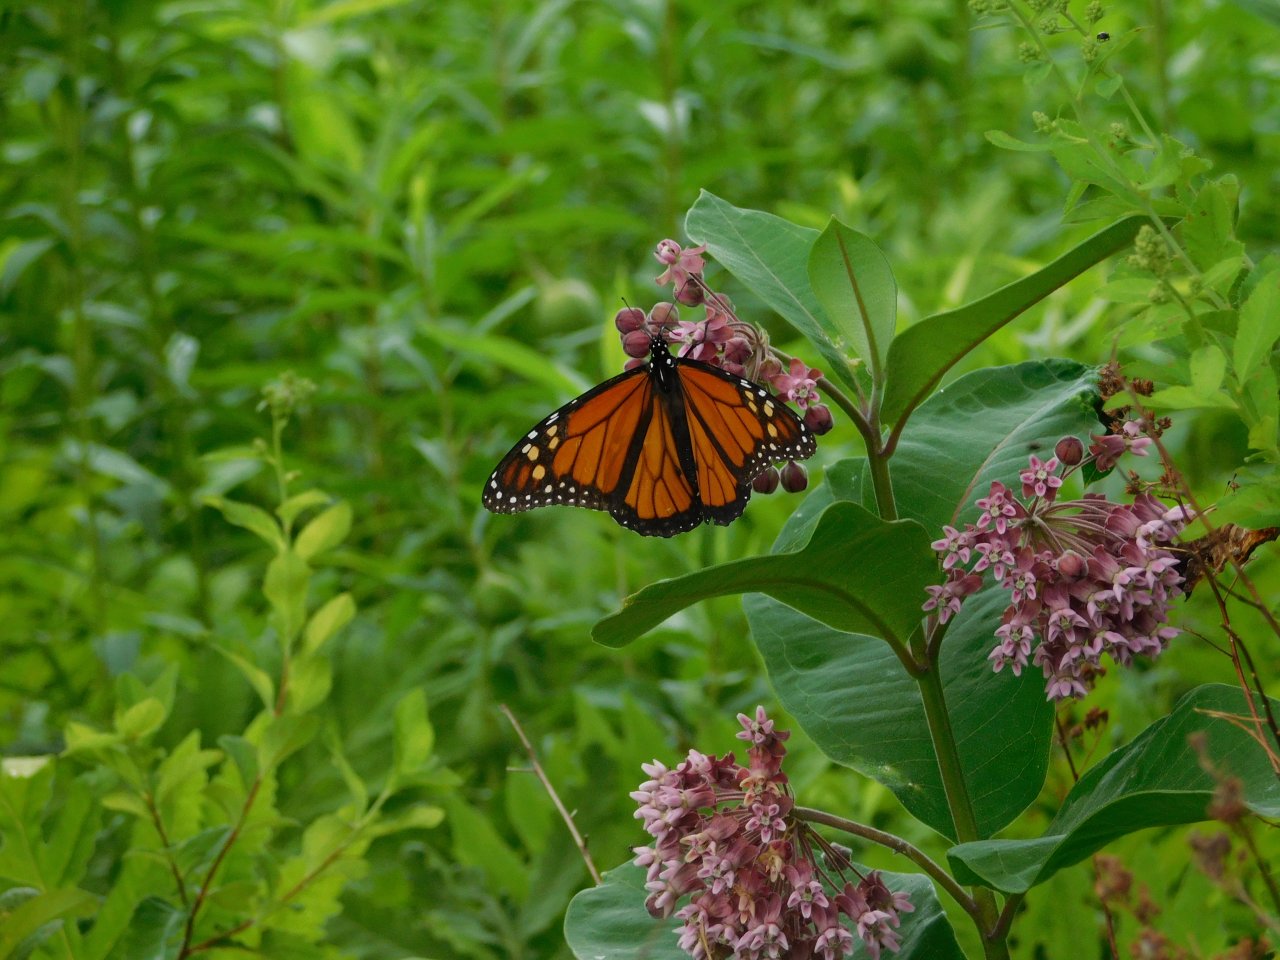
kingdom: Animalia
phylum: Arthropoda
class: Insecta
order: Lepidoptera
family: Nymphalidae
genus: Danaus
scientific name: Danaus plexippus
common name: Monarch
